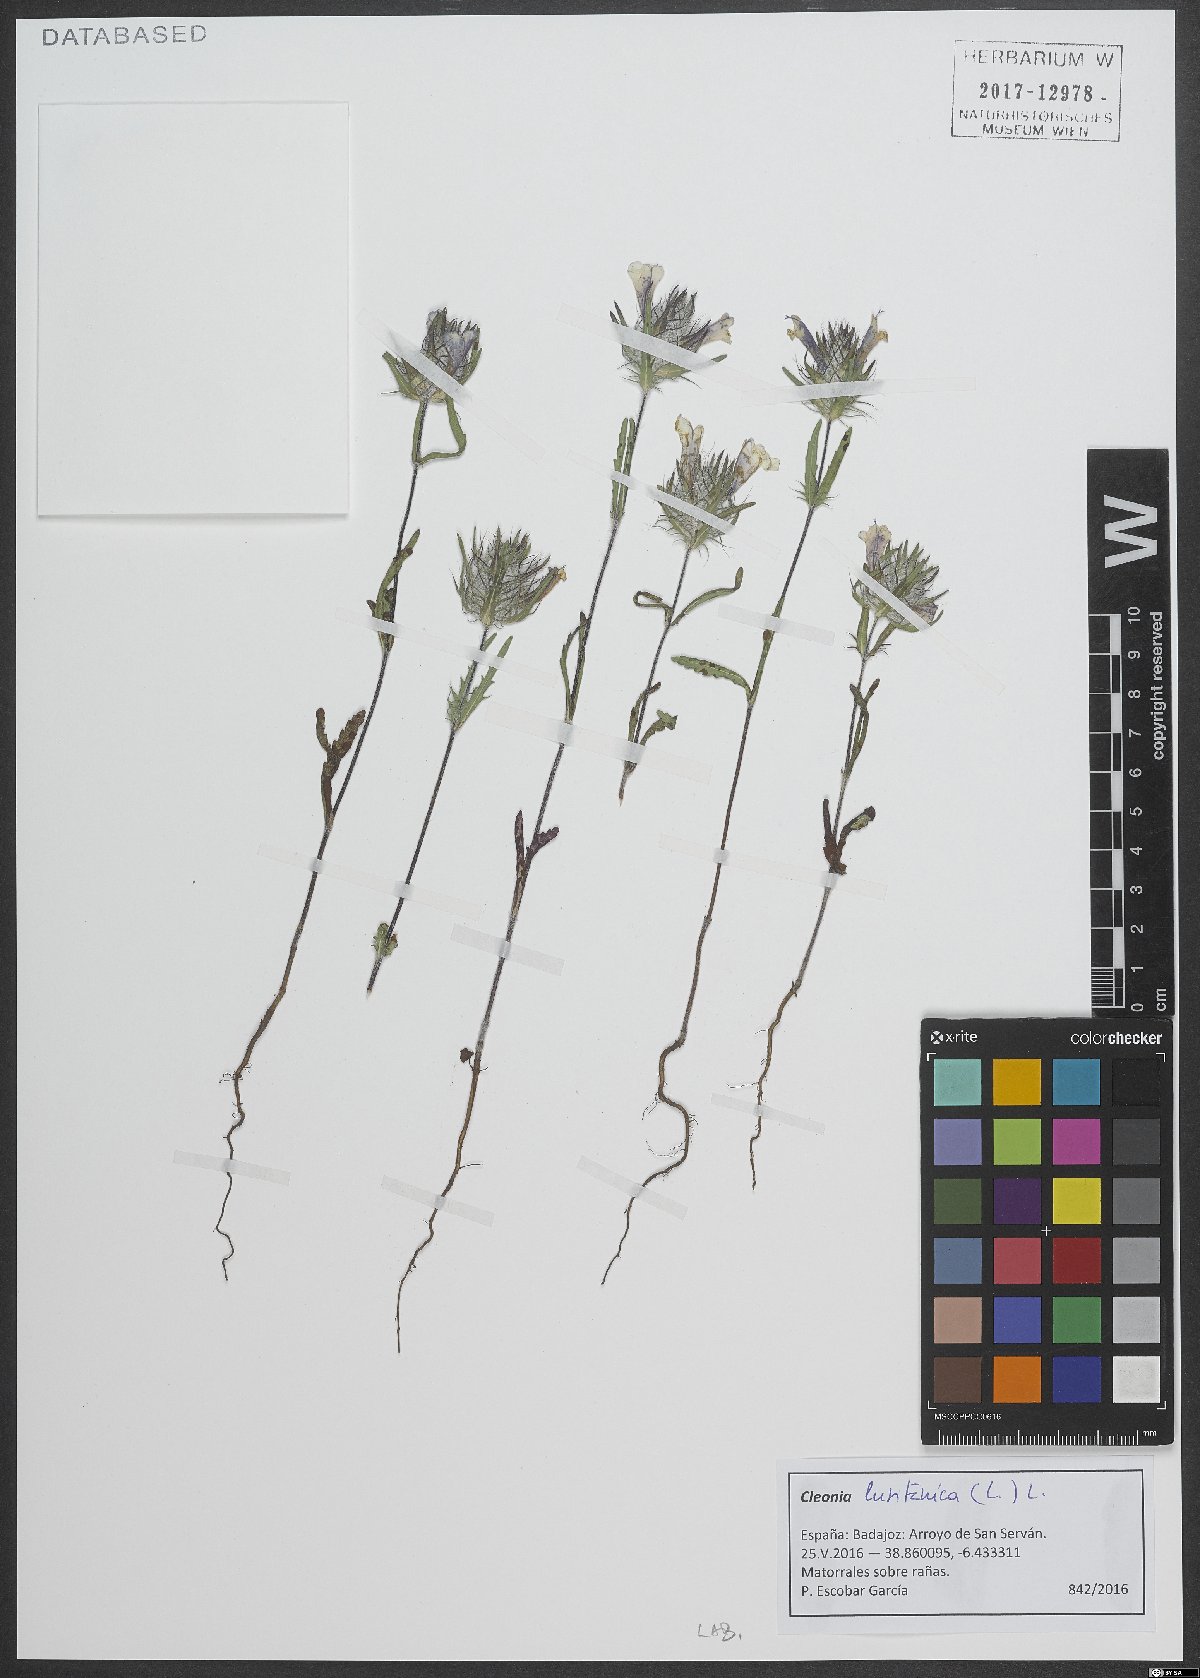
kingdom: Plantae
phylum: Tracheophyta
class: Magnoliopsida
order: Lamiales
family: Lamiaceae
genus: Cleonia
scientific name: Cleonia lusitanica
